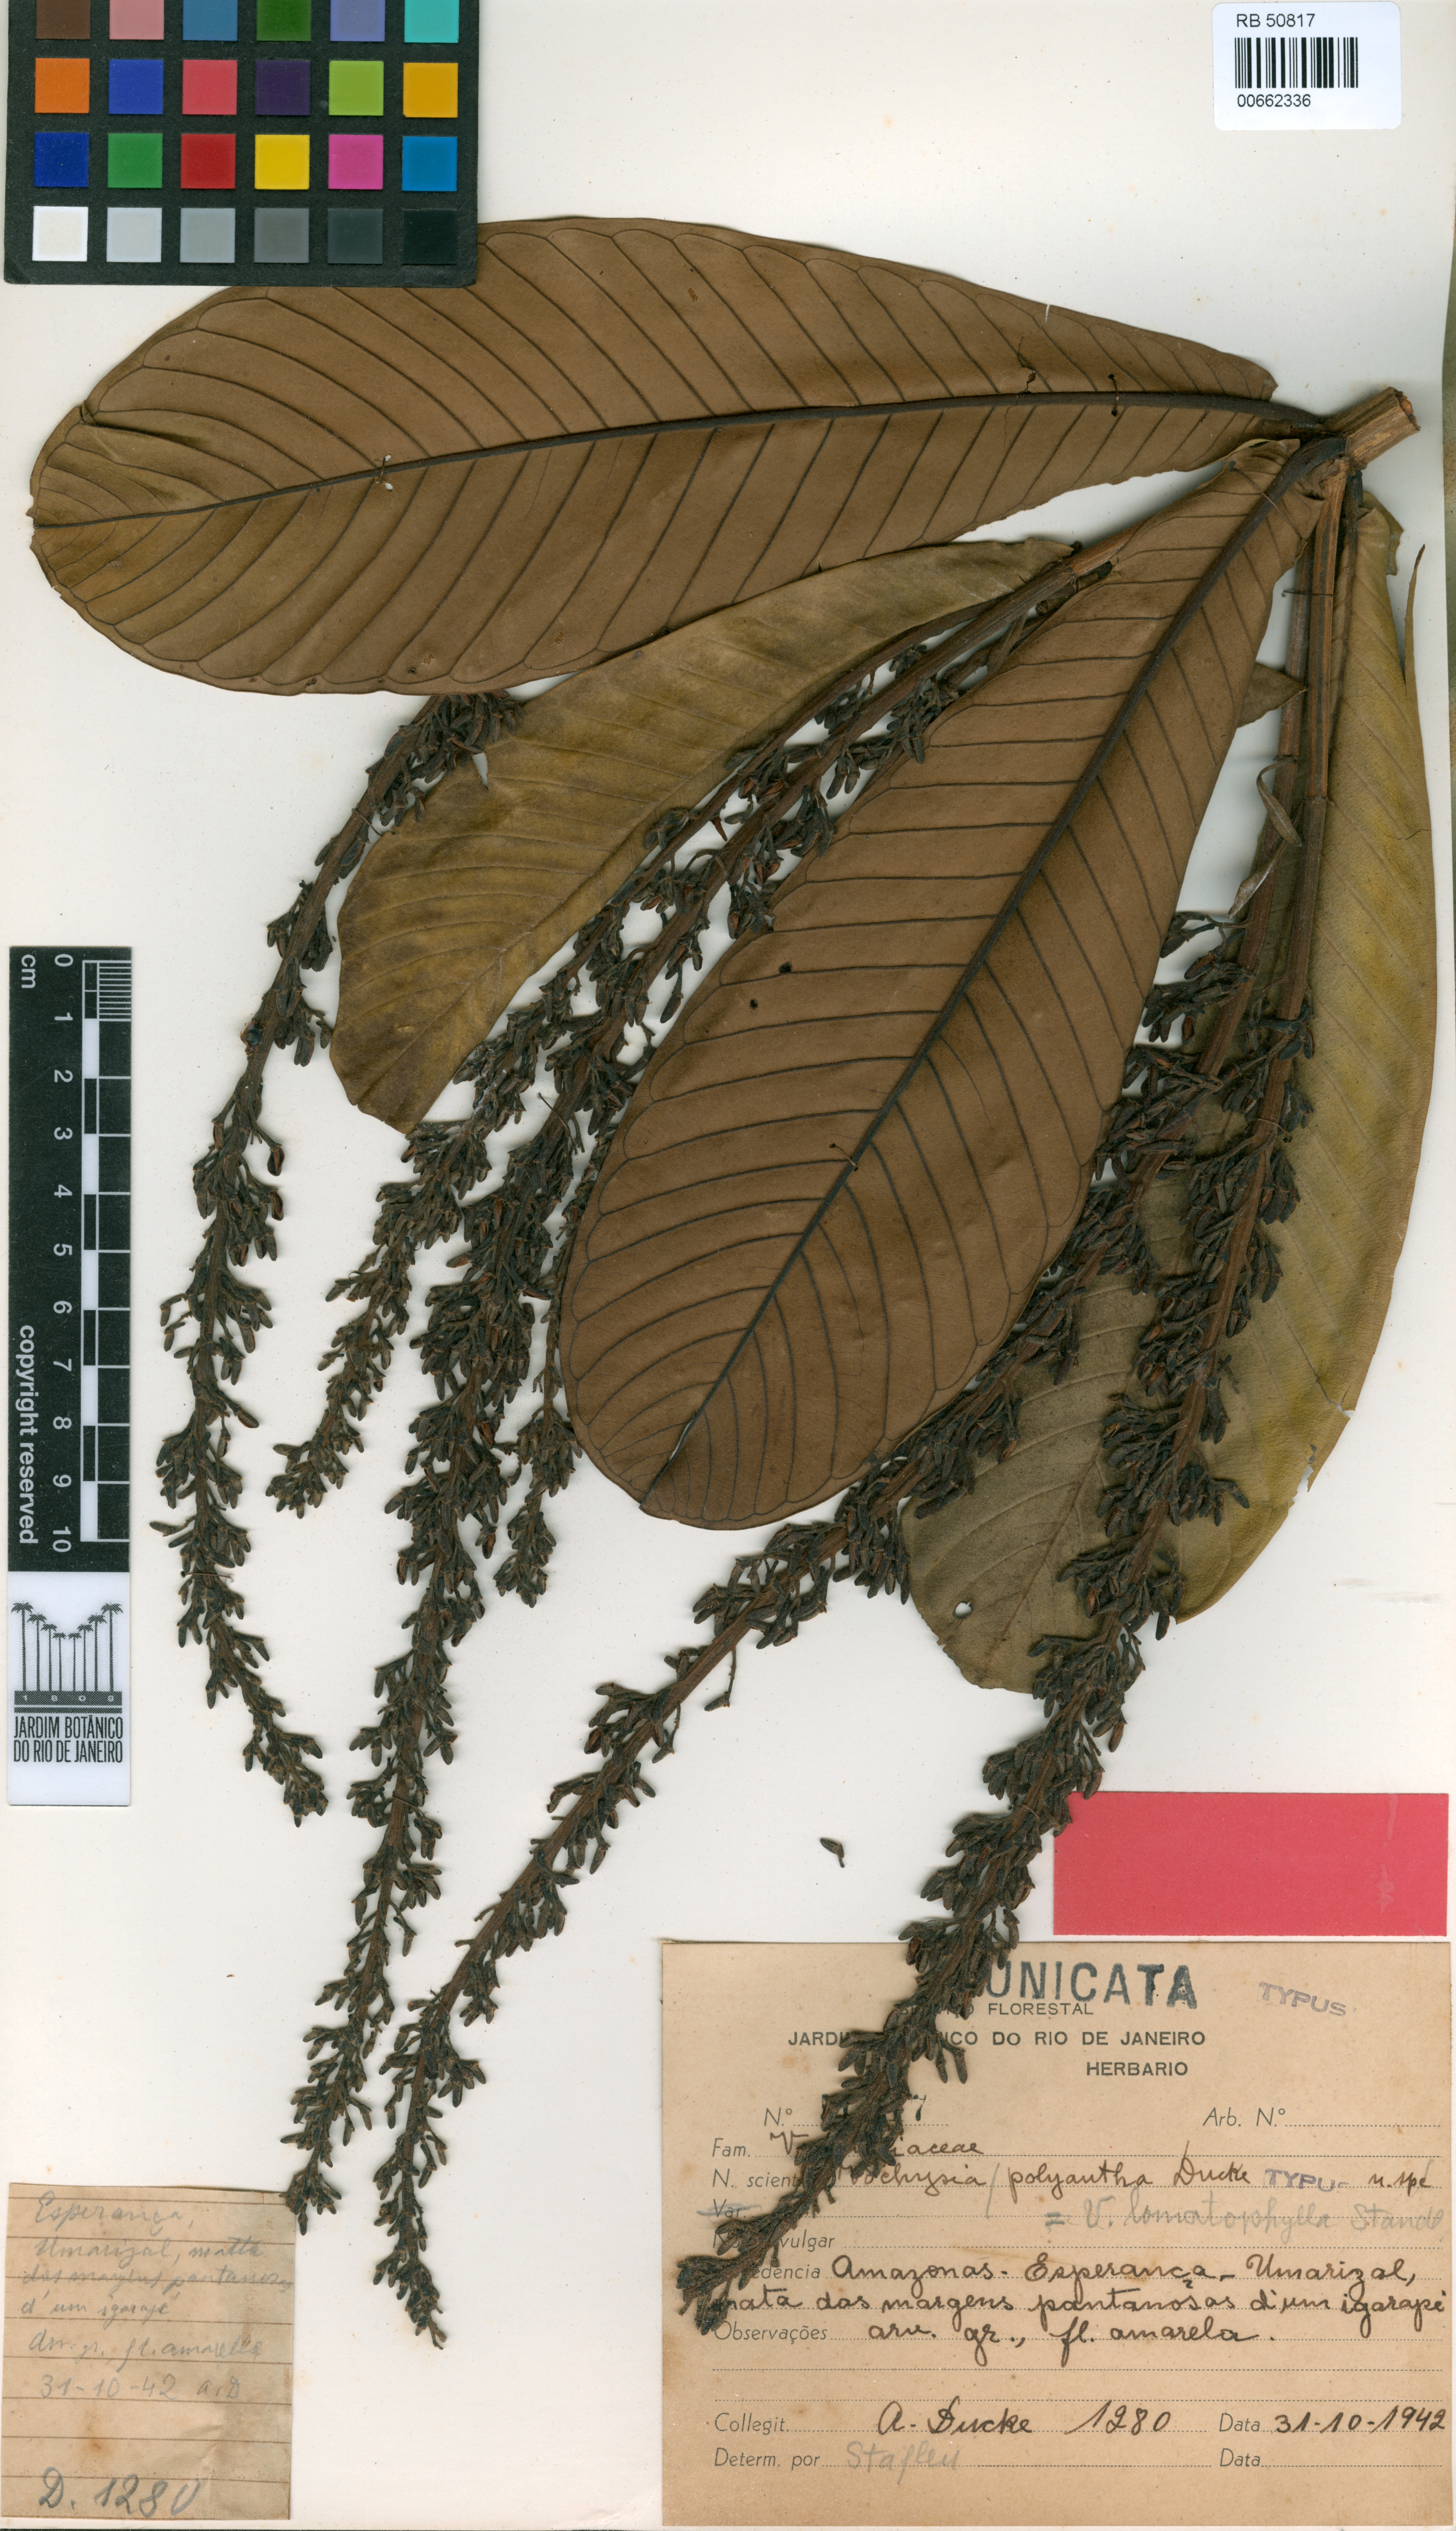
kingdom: Plantae
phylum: Tracheophyta
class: Magnoliopsida
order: Myrtales
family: Vochysiaceae
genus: Vochysia
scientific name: Vochysia lomatophylla
